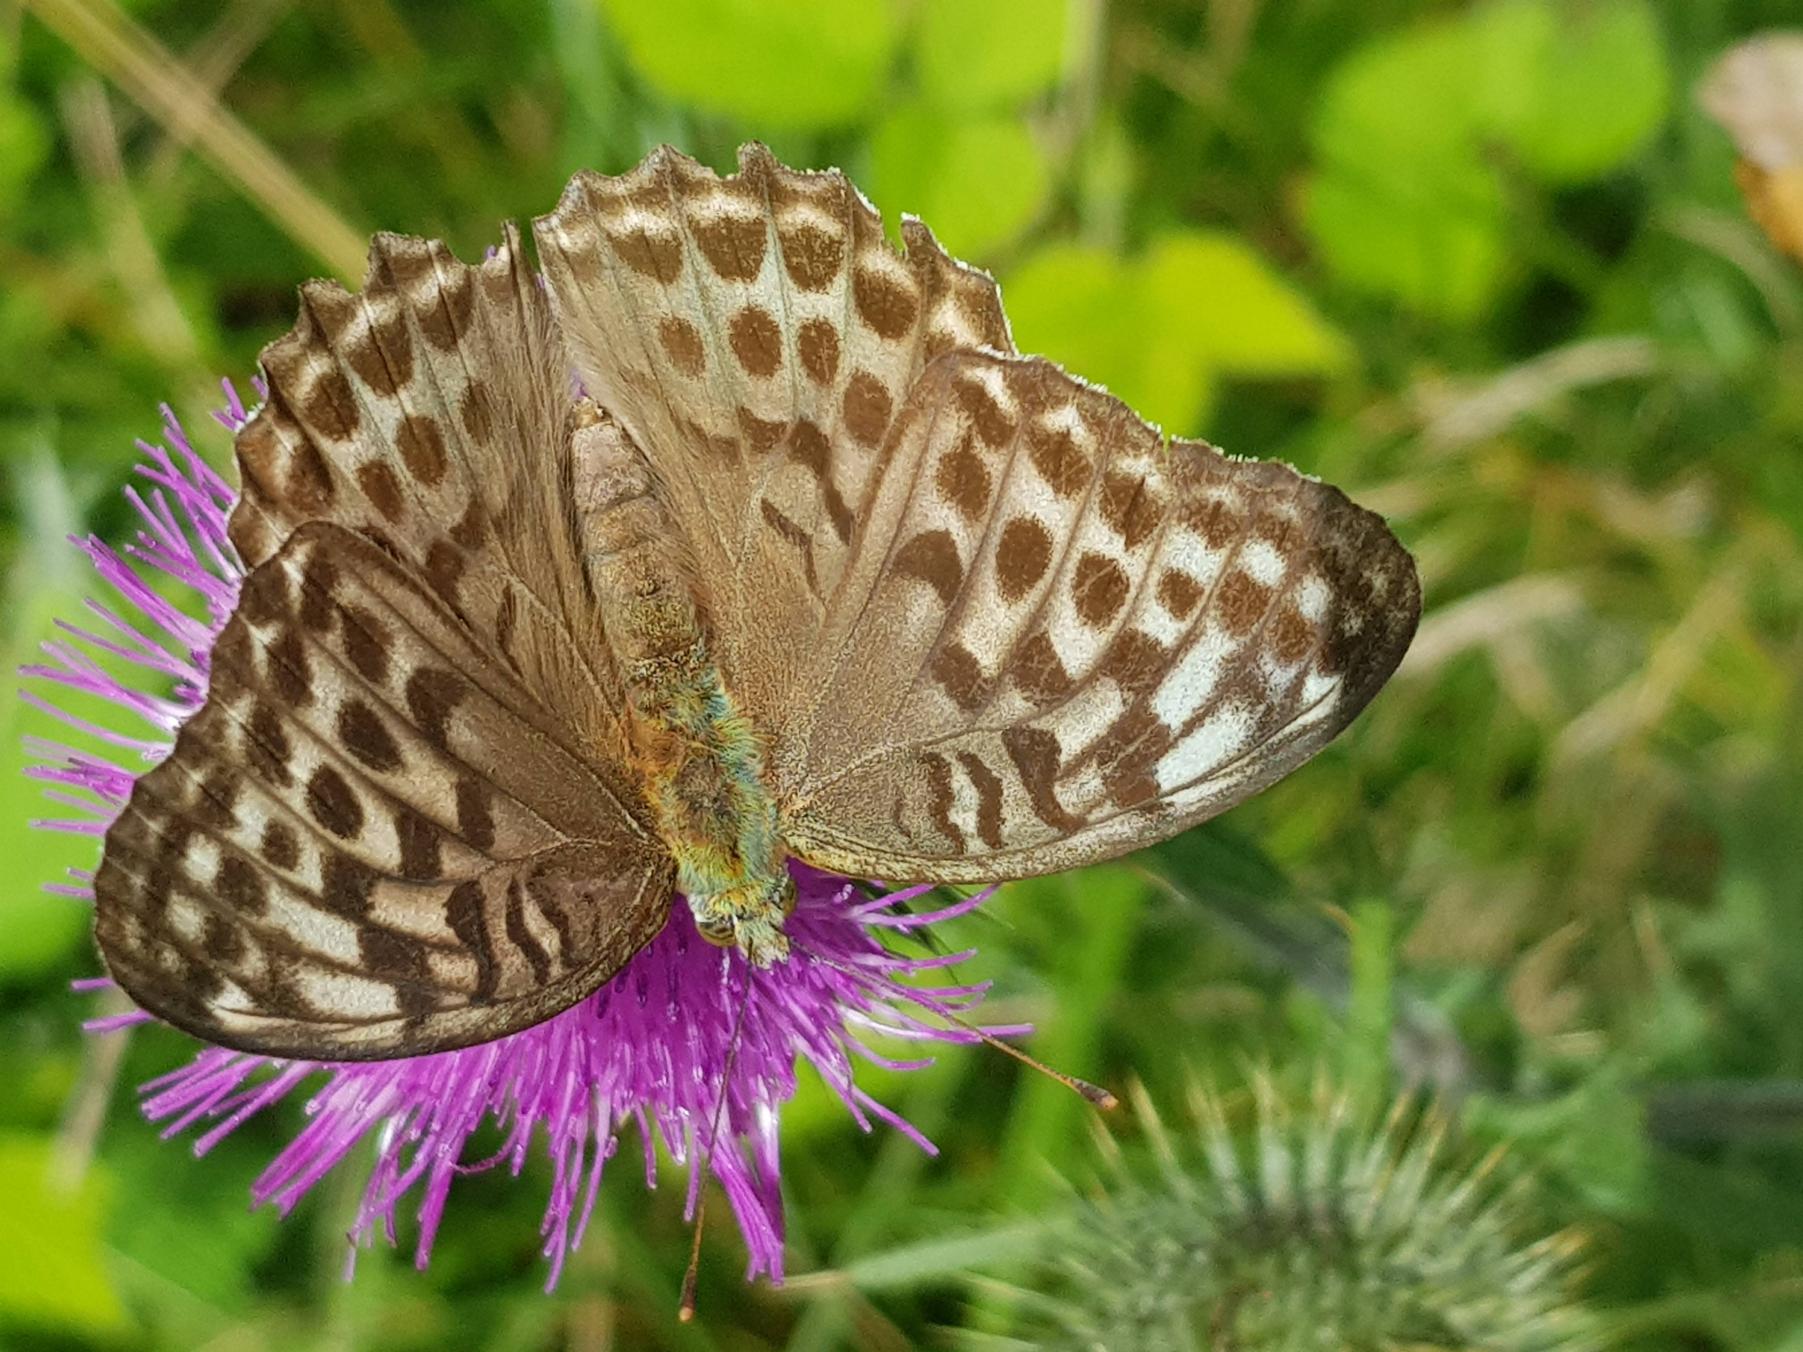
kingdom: Animalia
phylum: Arthropoda
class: Insecta
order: Lepidoptera
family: Nymphalidae
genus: Argynnis
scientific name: Argynnis paphia
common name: Kejserkåbe
